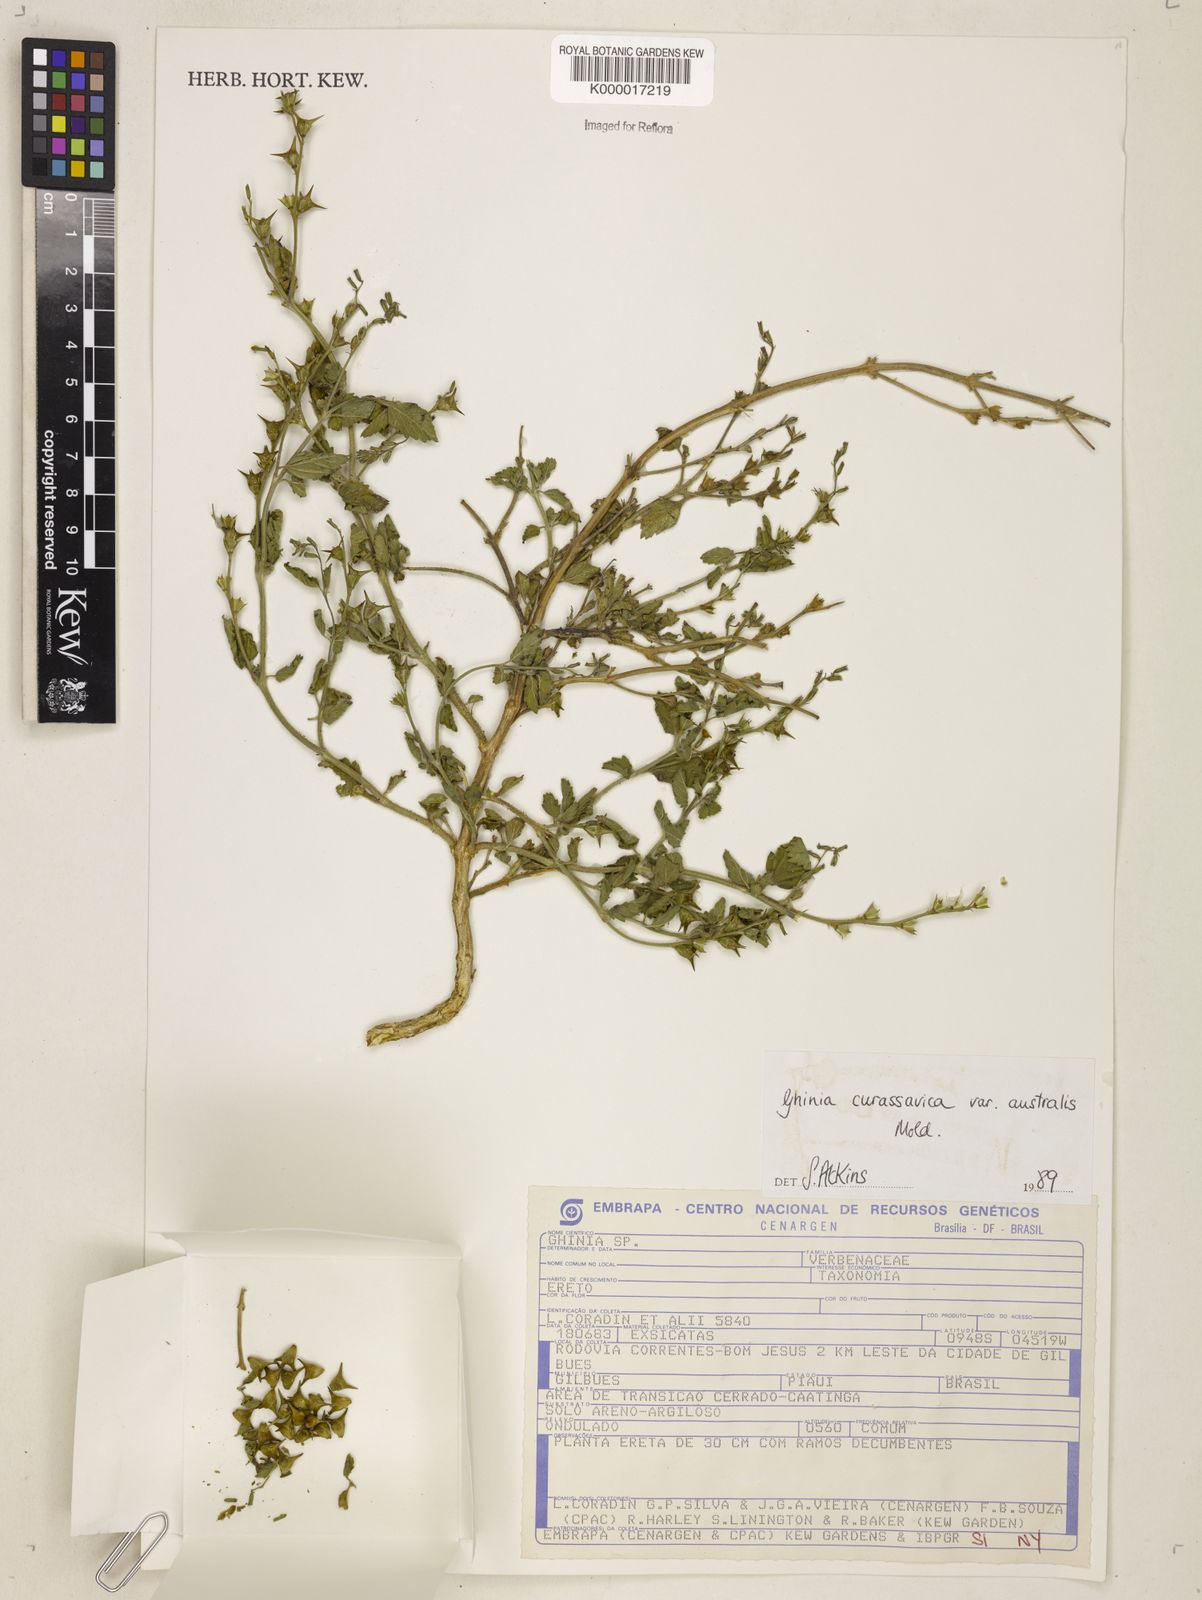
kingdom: Plantae
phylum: Tracheophyta
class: Magnoliopsida
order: Lamiales
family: Verbenaceae
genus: Tamonea
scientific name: Tamonea
